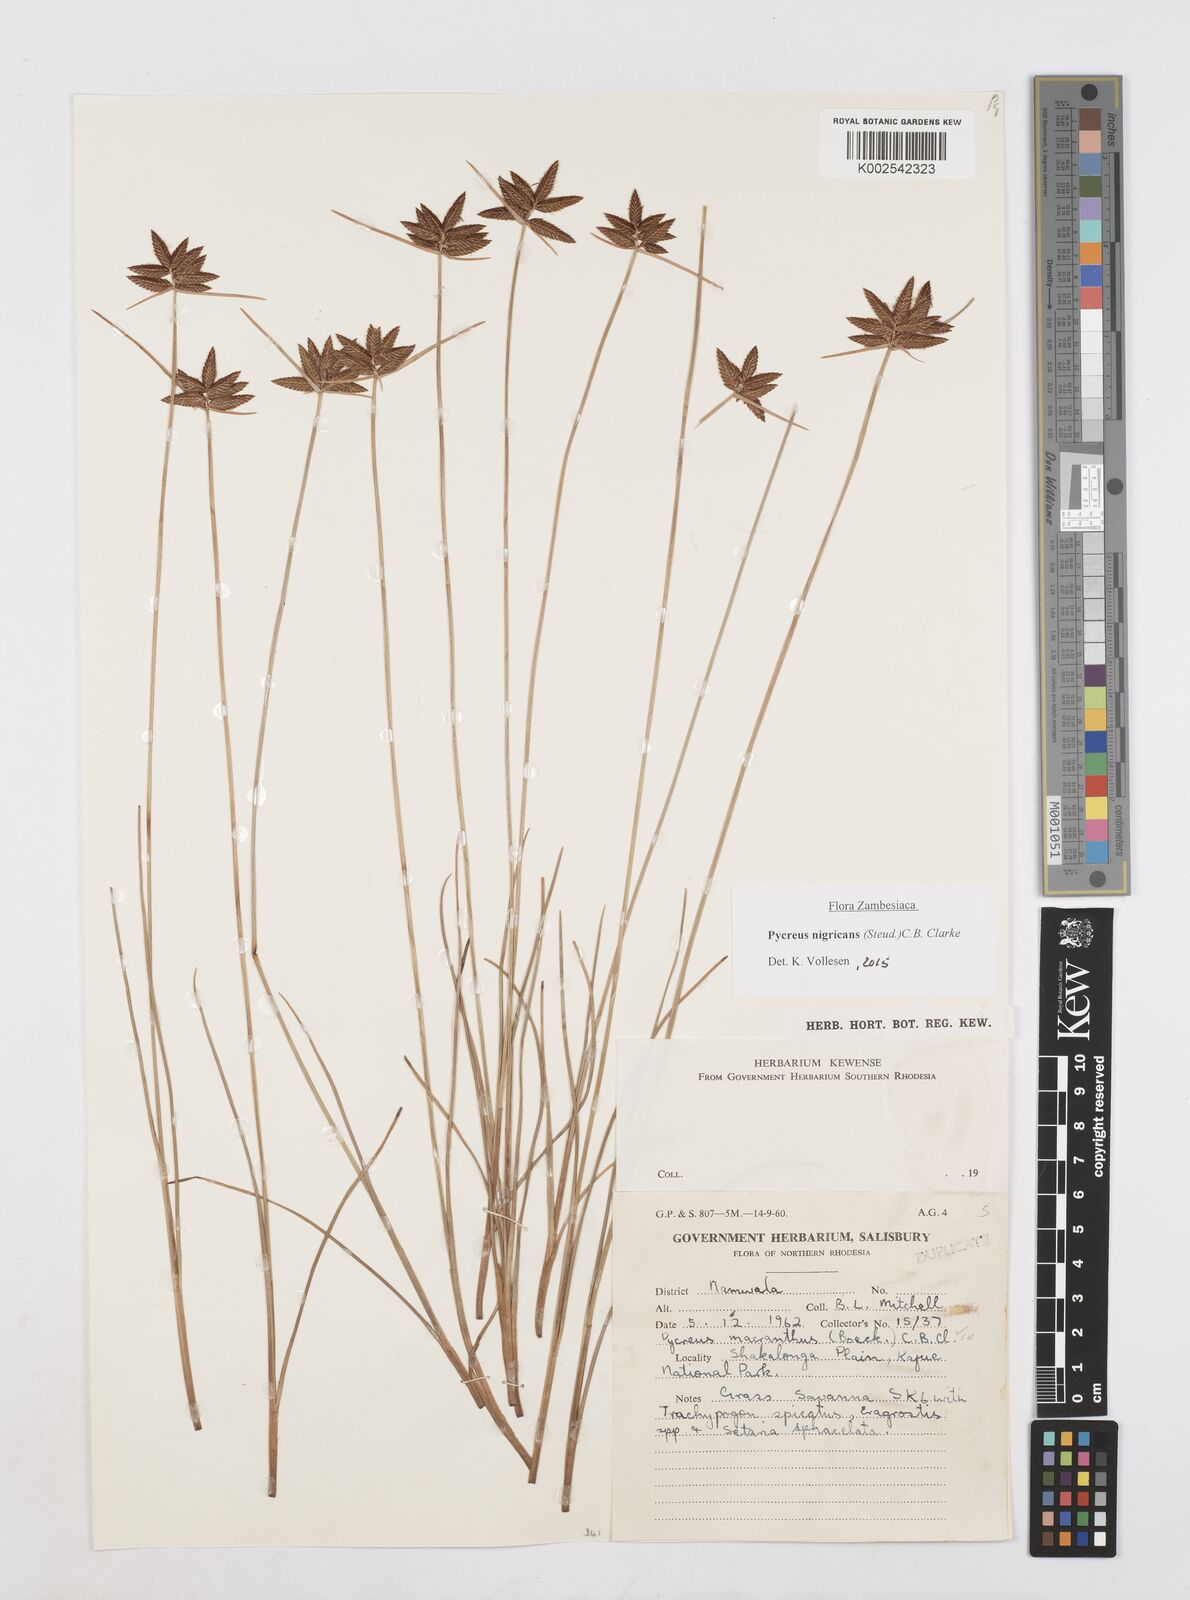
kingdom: Plantae
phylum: Tracheophyta
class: Liliopsida
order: Poales
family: Cyperaceae
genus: Cyperus
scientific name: Cyperus nigricans
